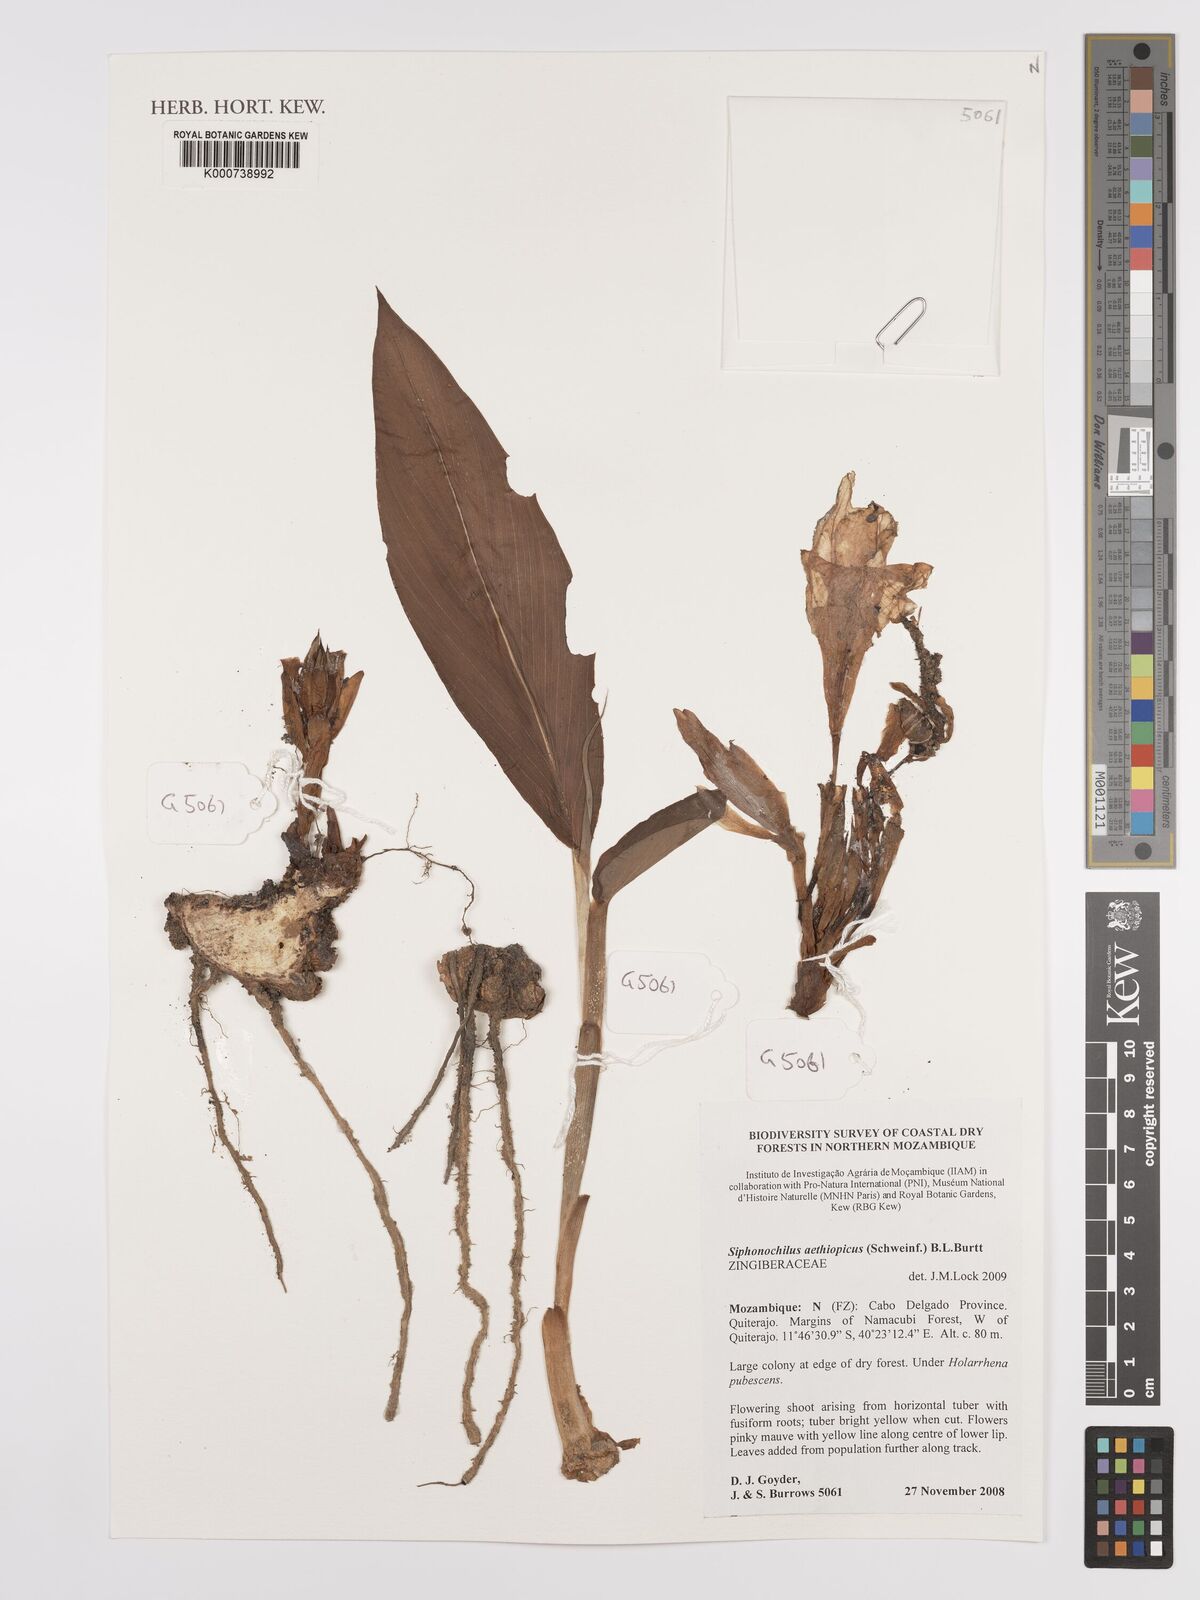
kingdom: Plantae
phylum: Tracheophyta
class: Liliopsida
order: Zingiberales
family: Zingiberaceae
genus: Siphonochilus
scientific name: Siphonochilus aethiopicus
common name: African-ginger
